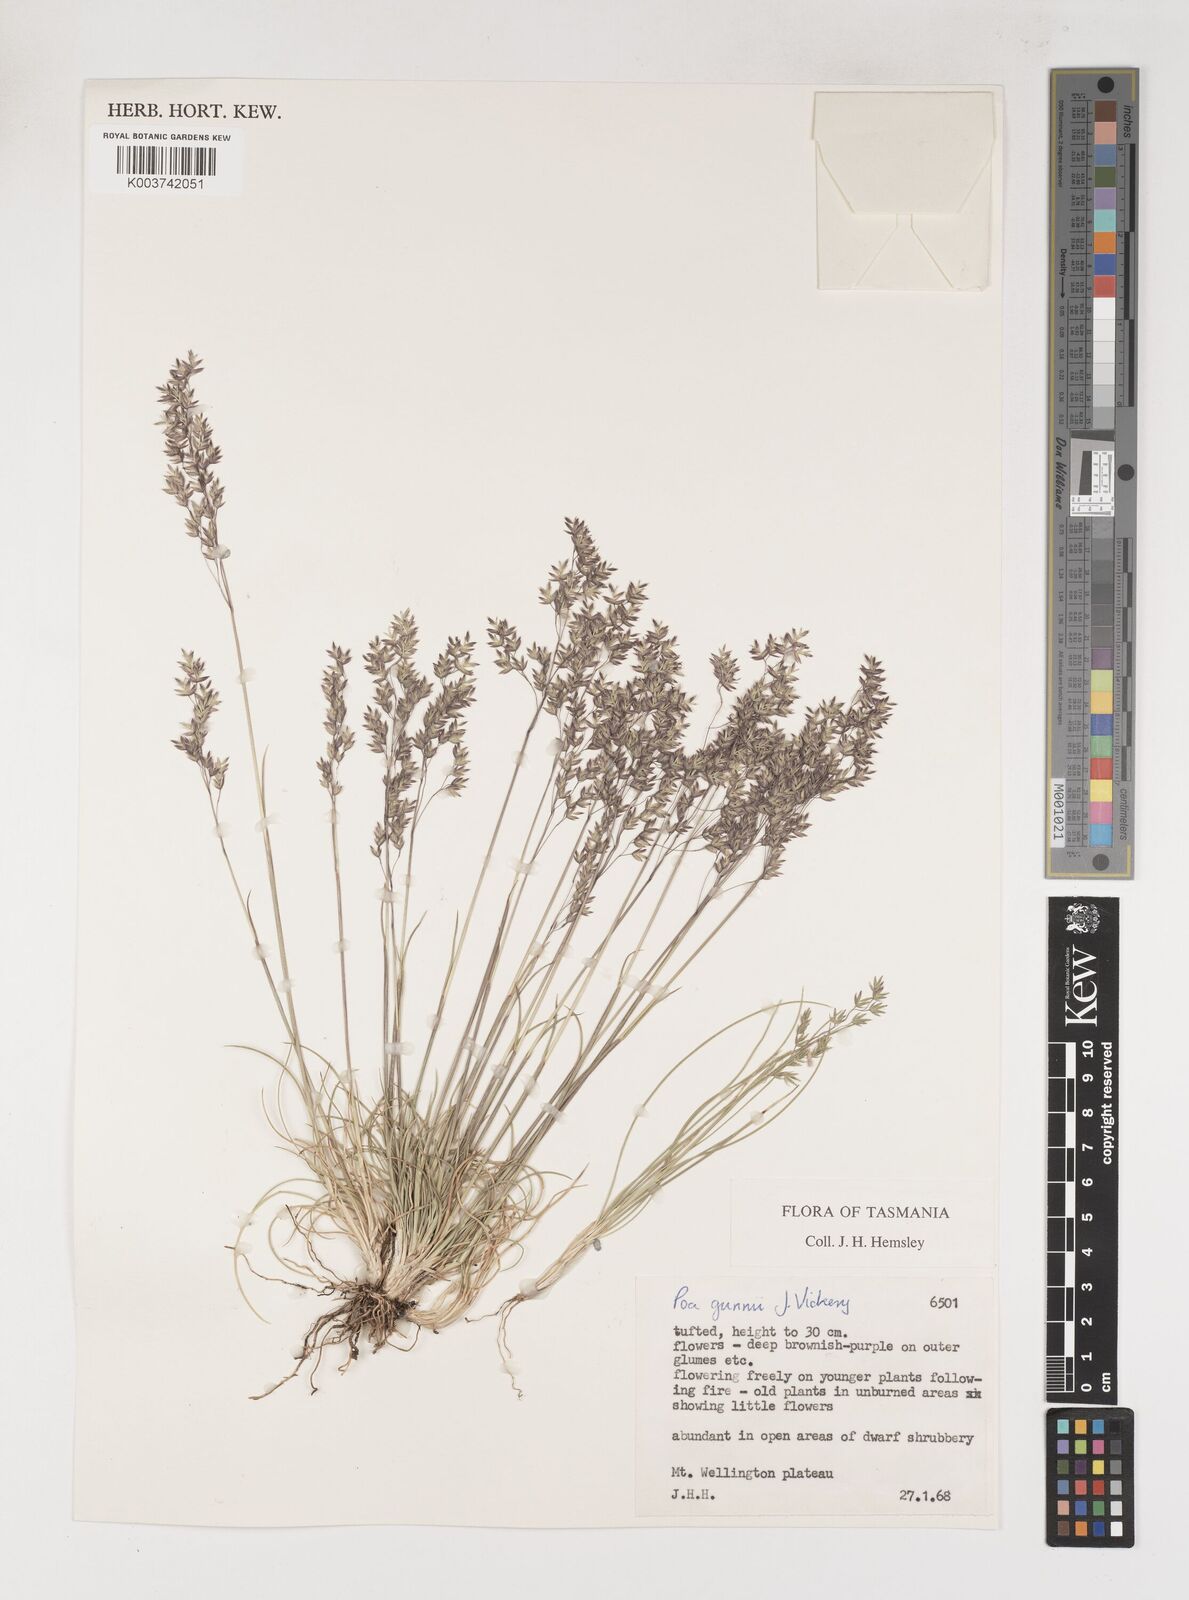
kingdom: Plantae
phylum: Tracheophyta
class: Liliopsida
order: Poales
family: Poaceae
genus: Poa
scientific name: Poa gunnii
